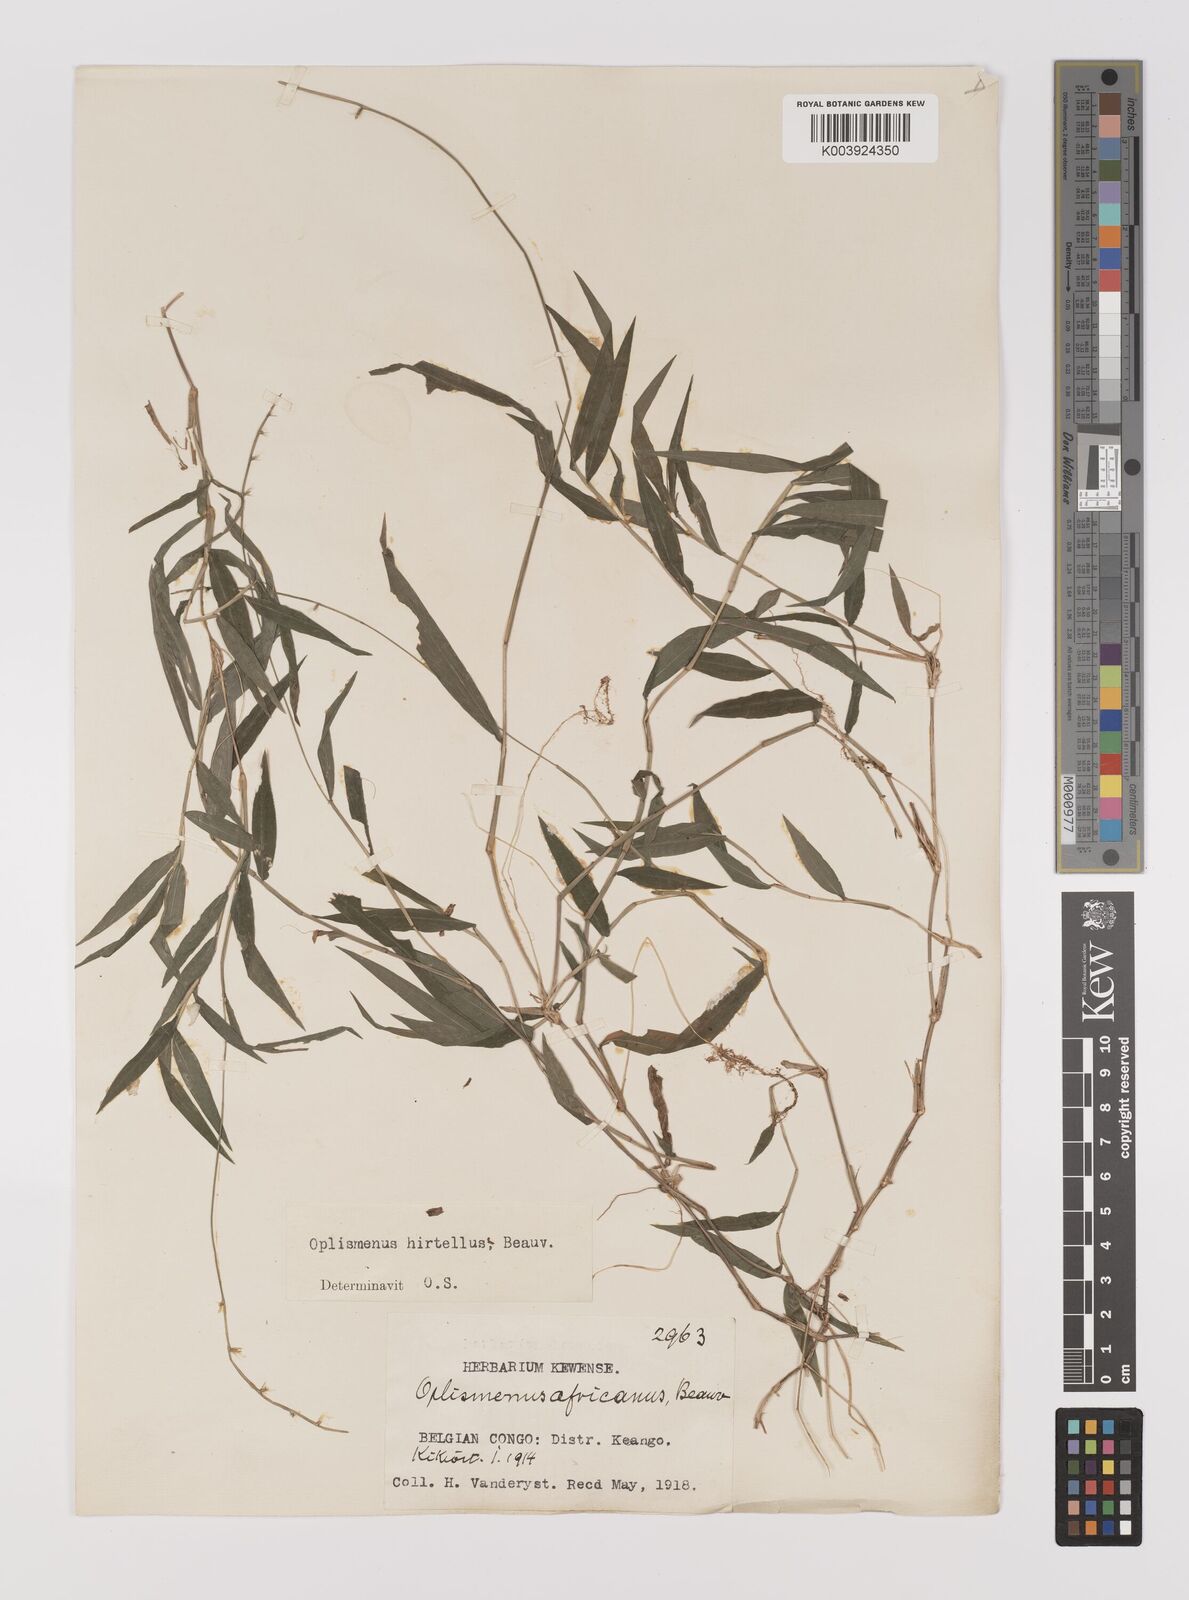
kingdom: Plantae
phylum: Tracheophyta
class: Liliopsida
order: Poales
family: Poaceae
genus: Oplismenus
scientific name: Oplismenus hirtellus
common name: Basketgrass
